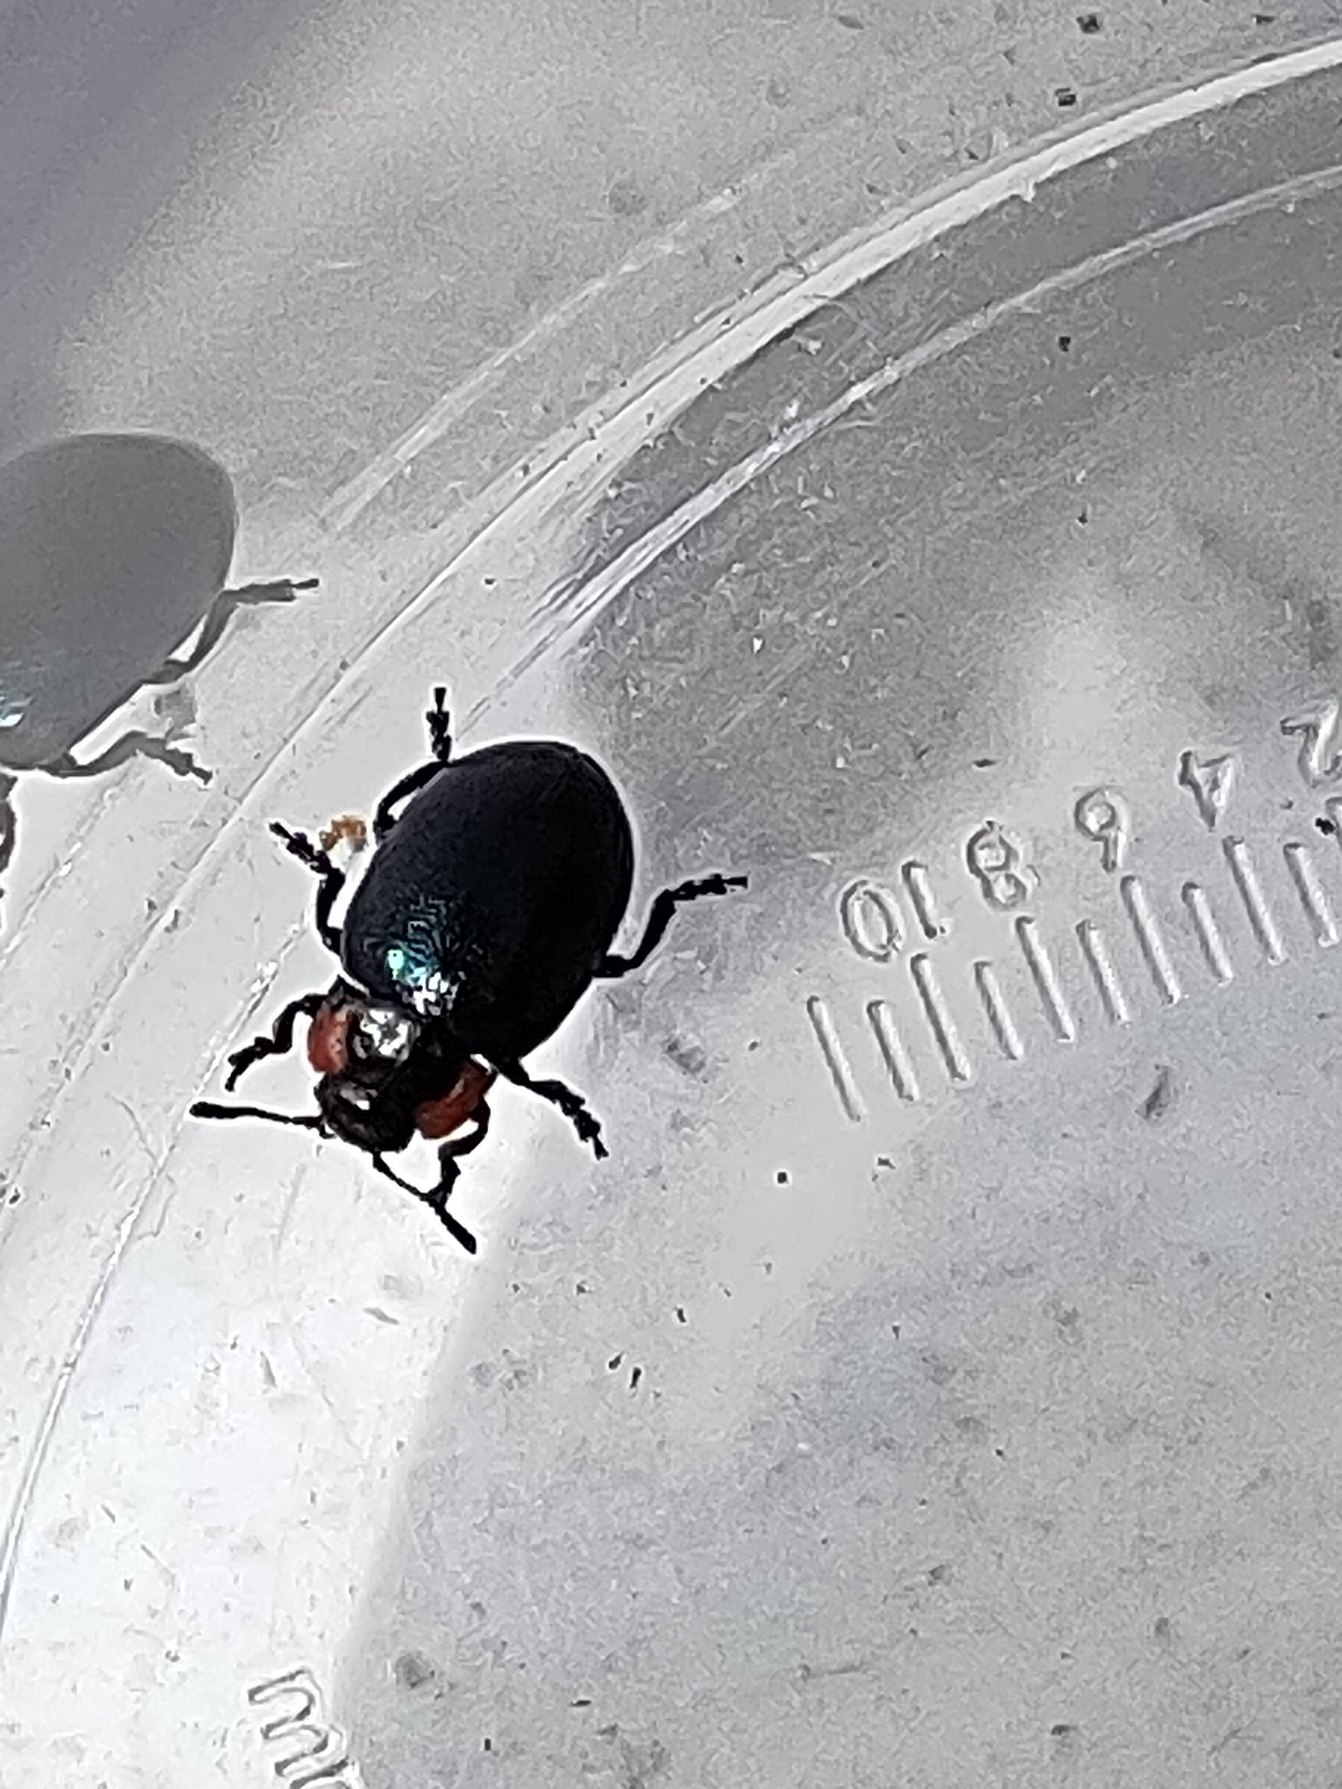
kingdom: Animalia
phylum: Arthropoda
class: Insecta
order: Coleoptera
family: Chrysomelidae
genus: Chrysomela
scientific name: Chrysomela collaris
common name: Klitbladbille
